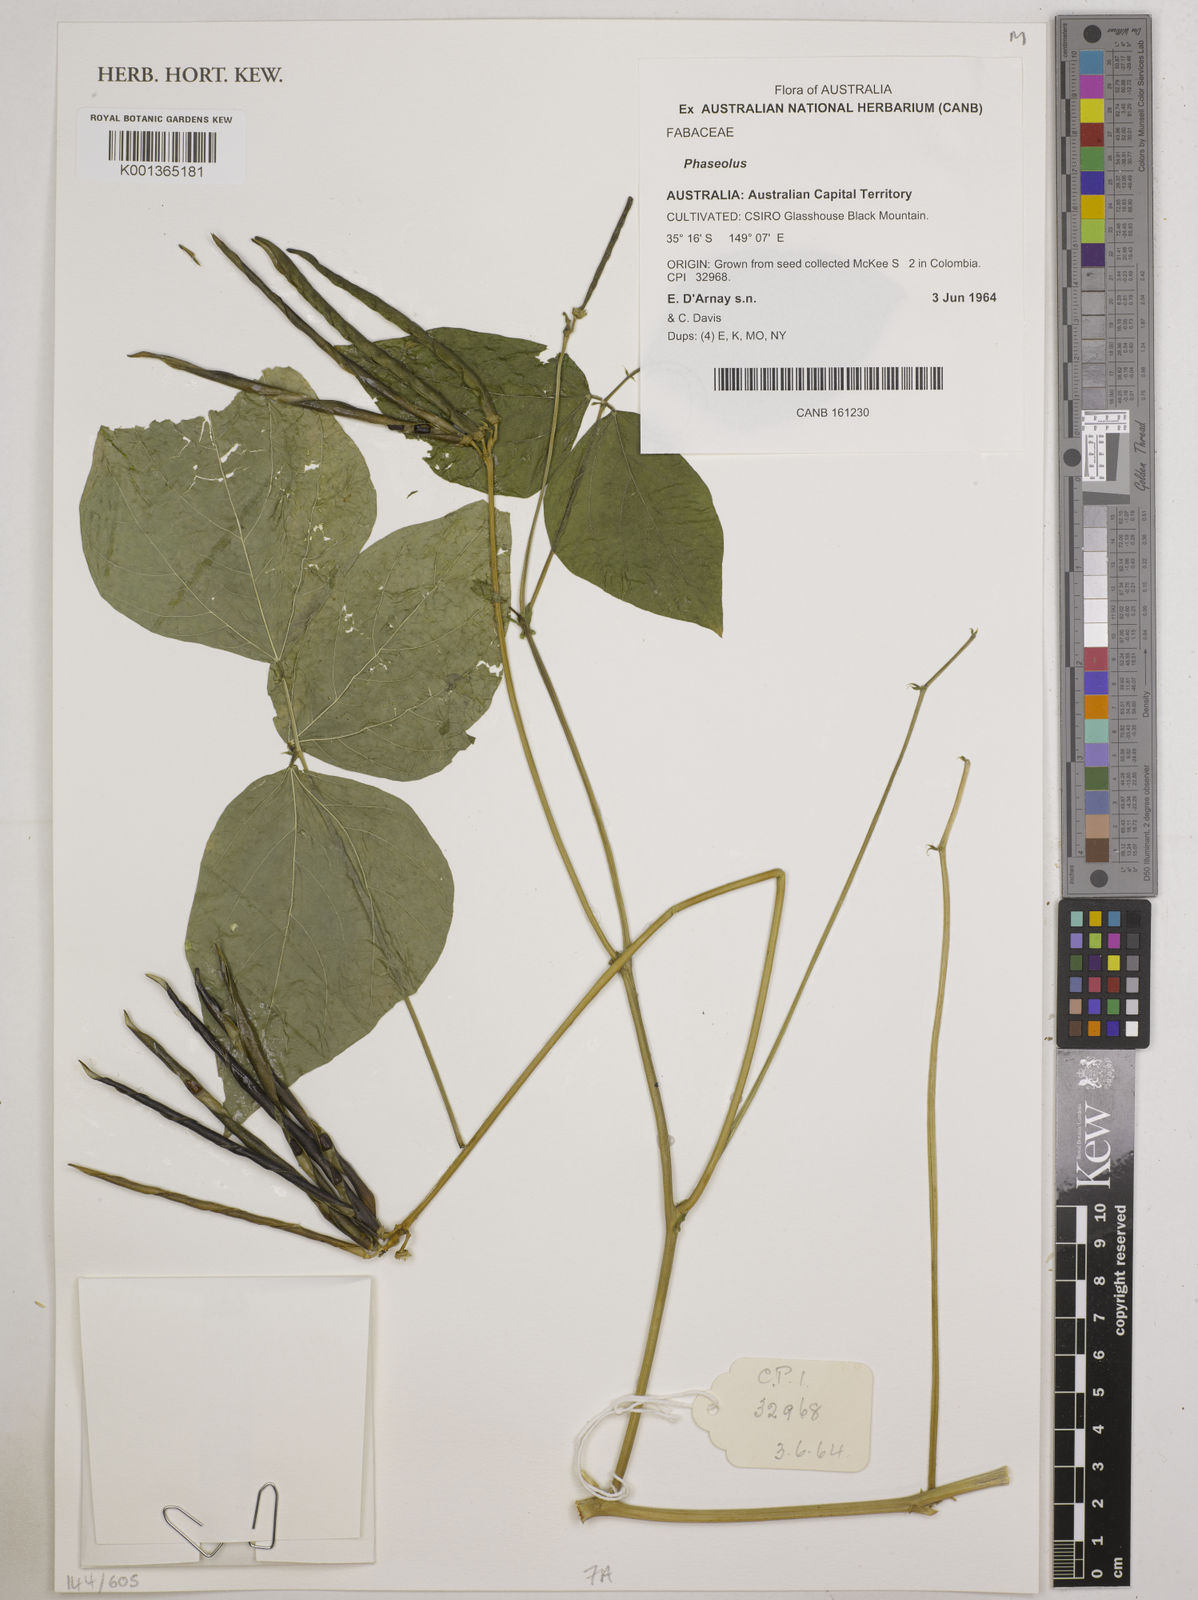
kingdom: Plantae
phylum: Tracheophyta
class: Magnoliopsida
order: Fabales
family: Fabaceae
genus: Phaseolus
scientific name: Phaseolus
